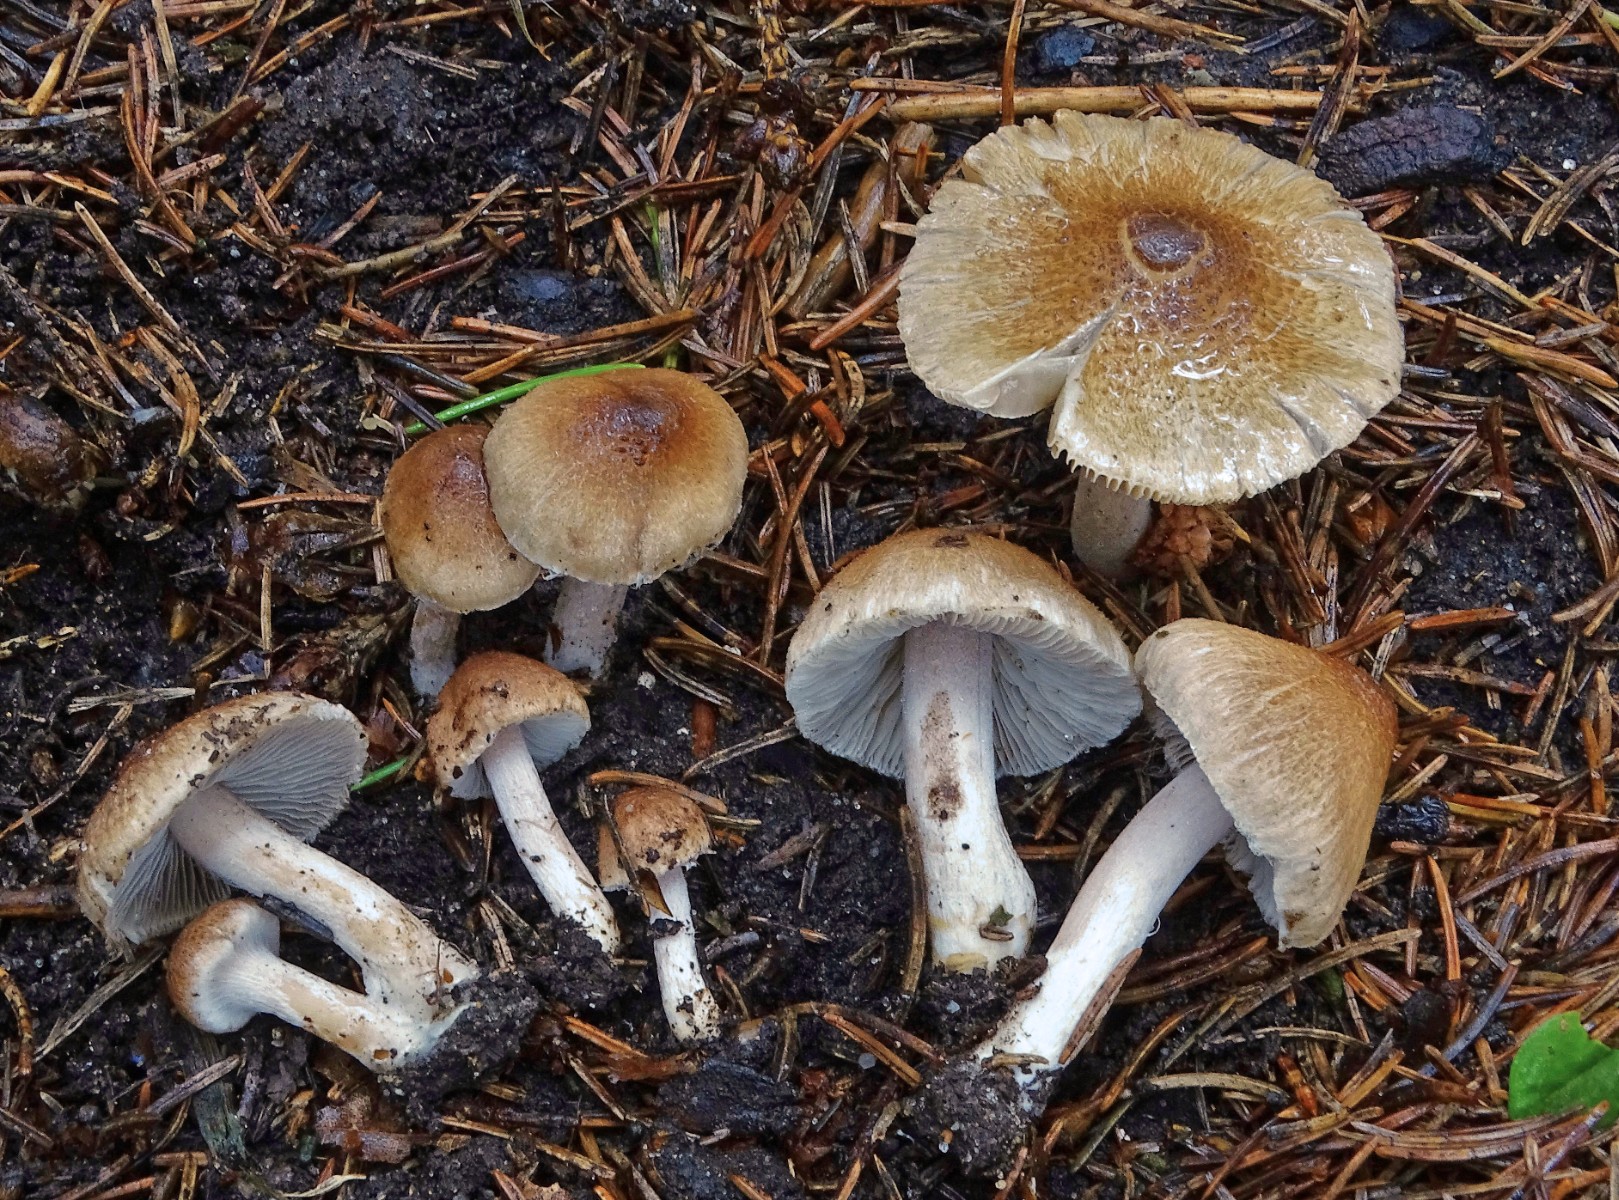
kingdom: Fungi
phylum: Basidiomycota
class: Agaricomycetes
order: Agaricales
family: Inocybaceae
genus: Inocybe
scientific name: Inocybe rimosobispora
